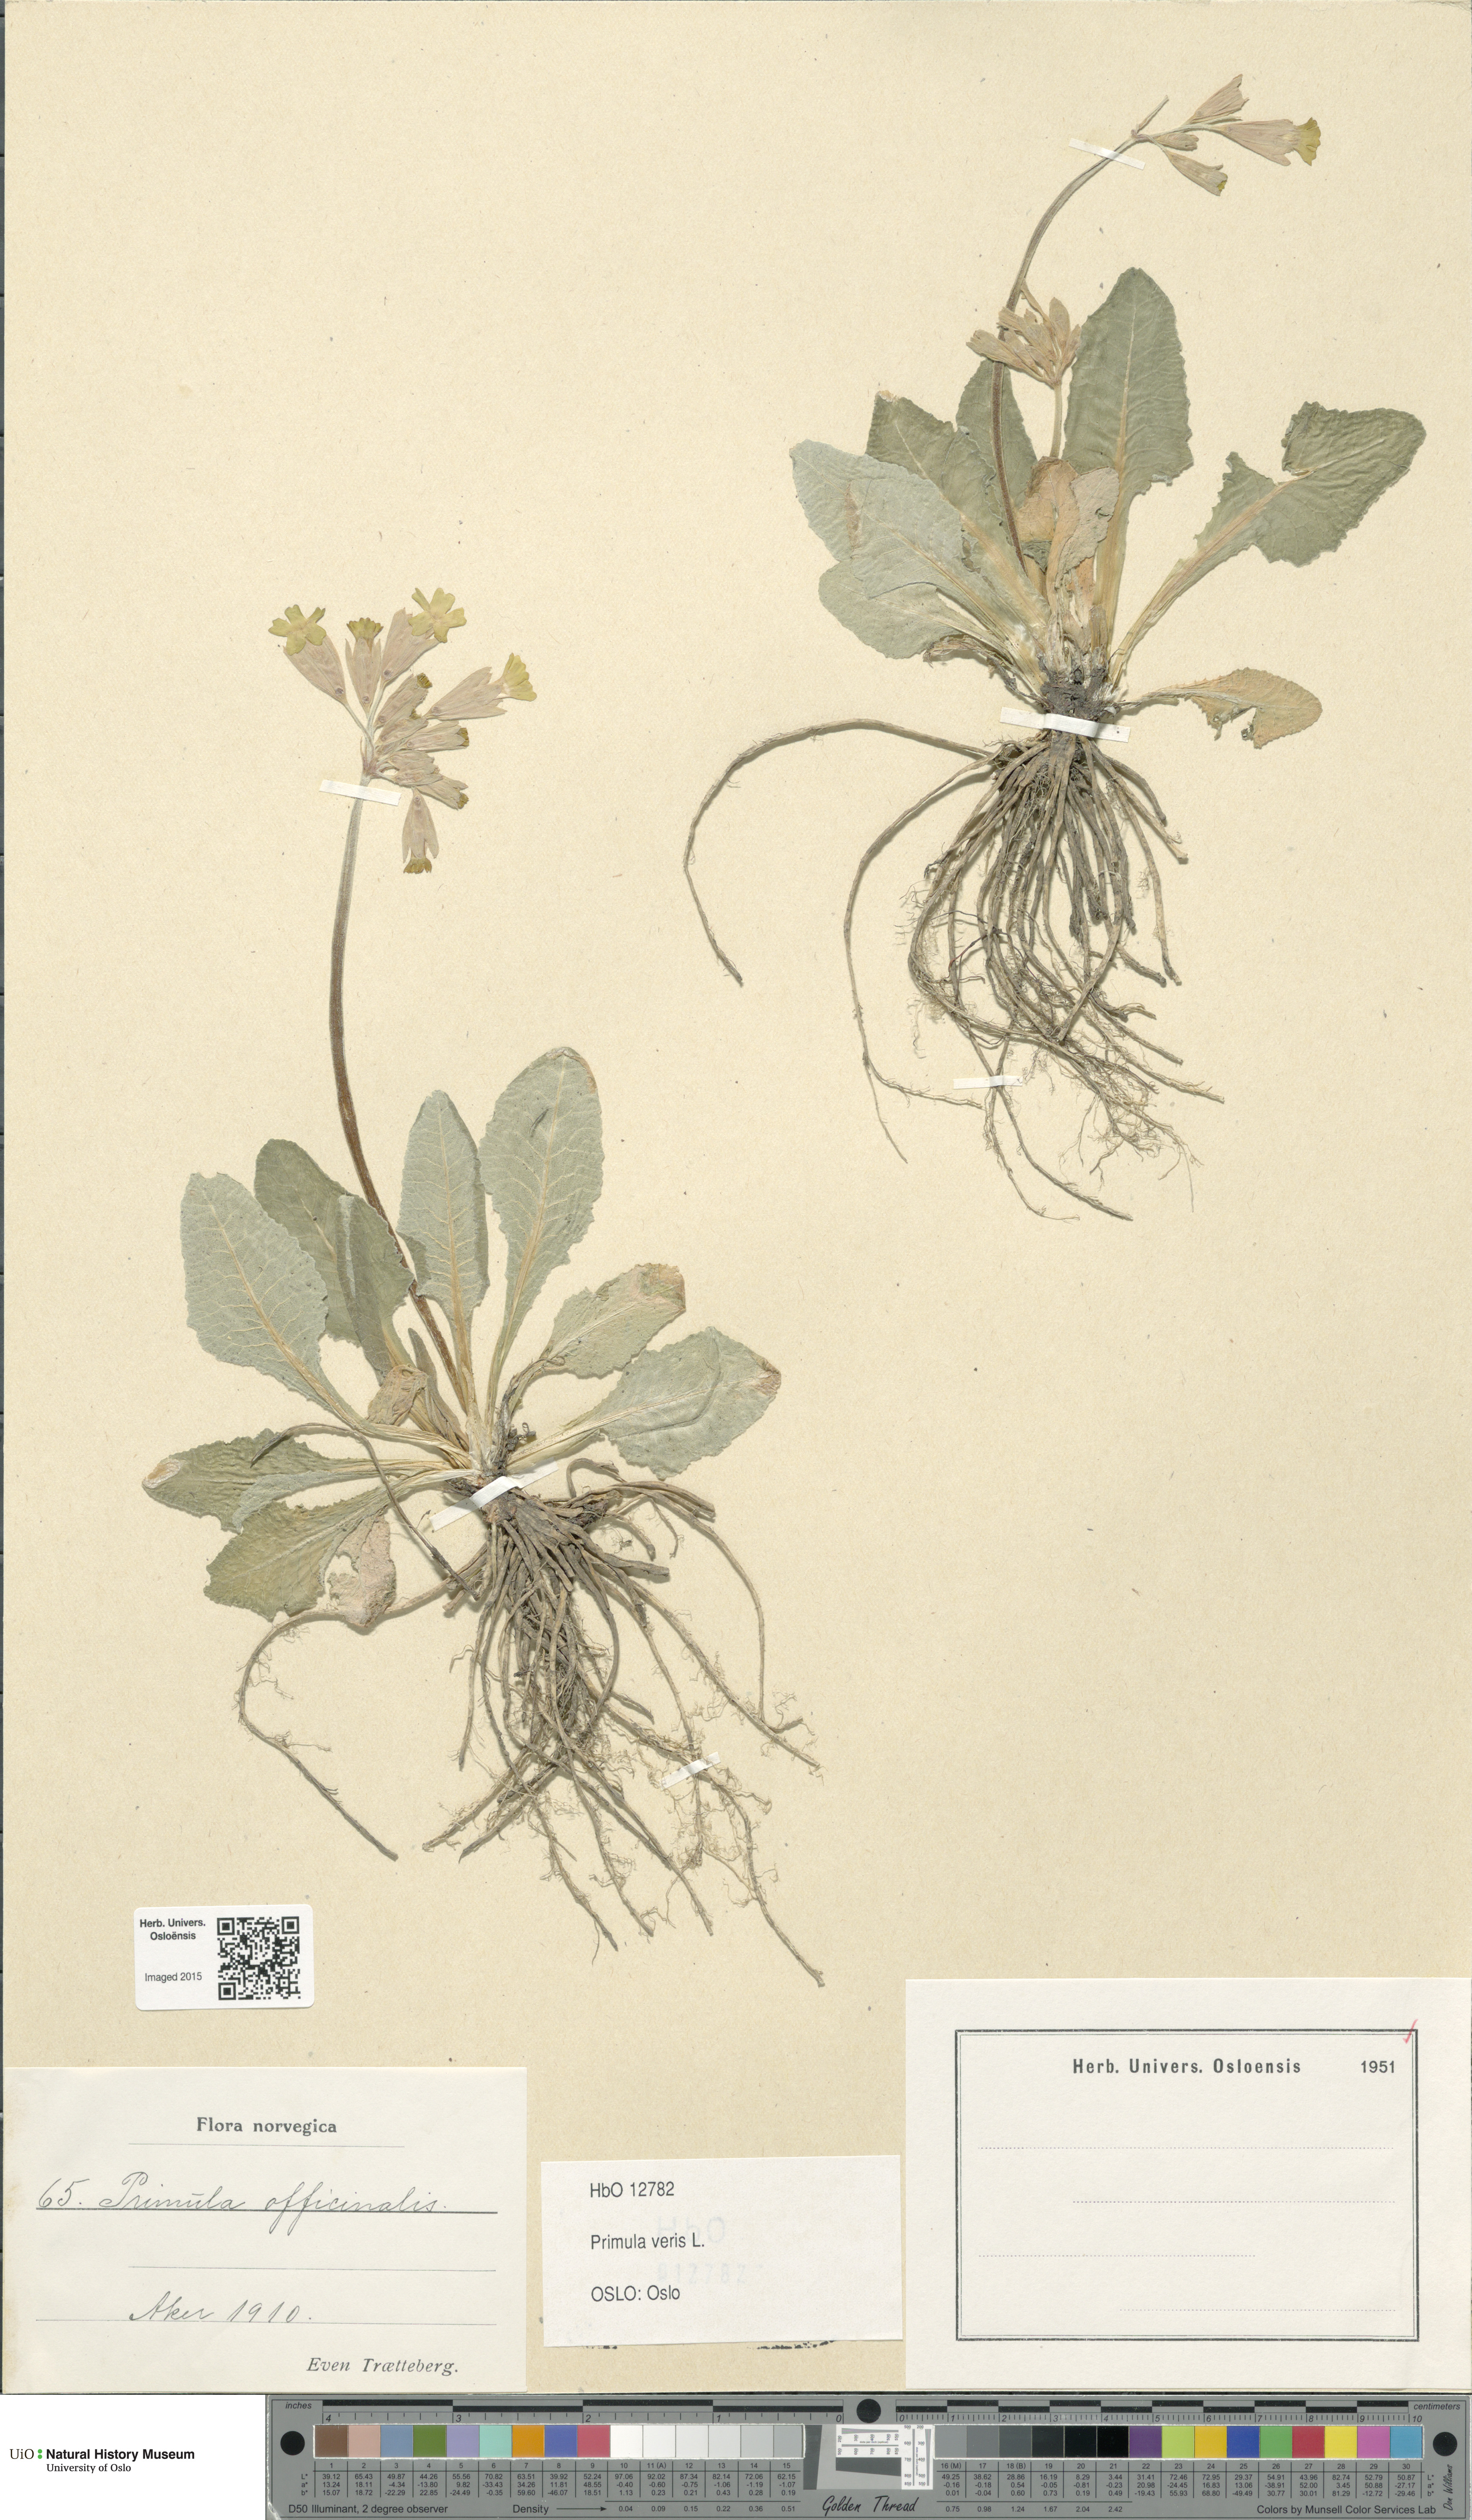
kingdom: Plantae
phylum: Tracheophyta
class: Magnoliopsida
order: Ericales
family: Primulaceae
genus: Primula
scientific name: Primula veris
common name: Cowslip
